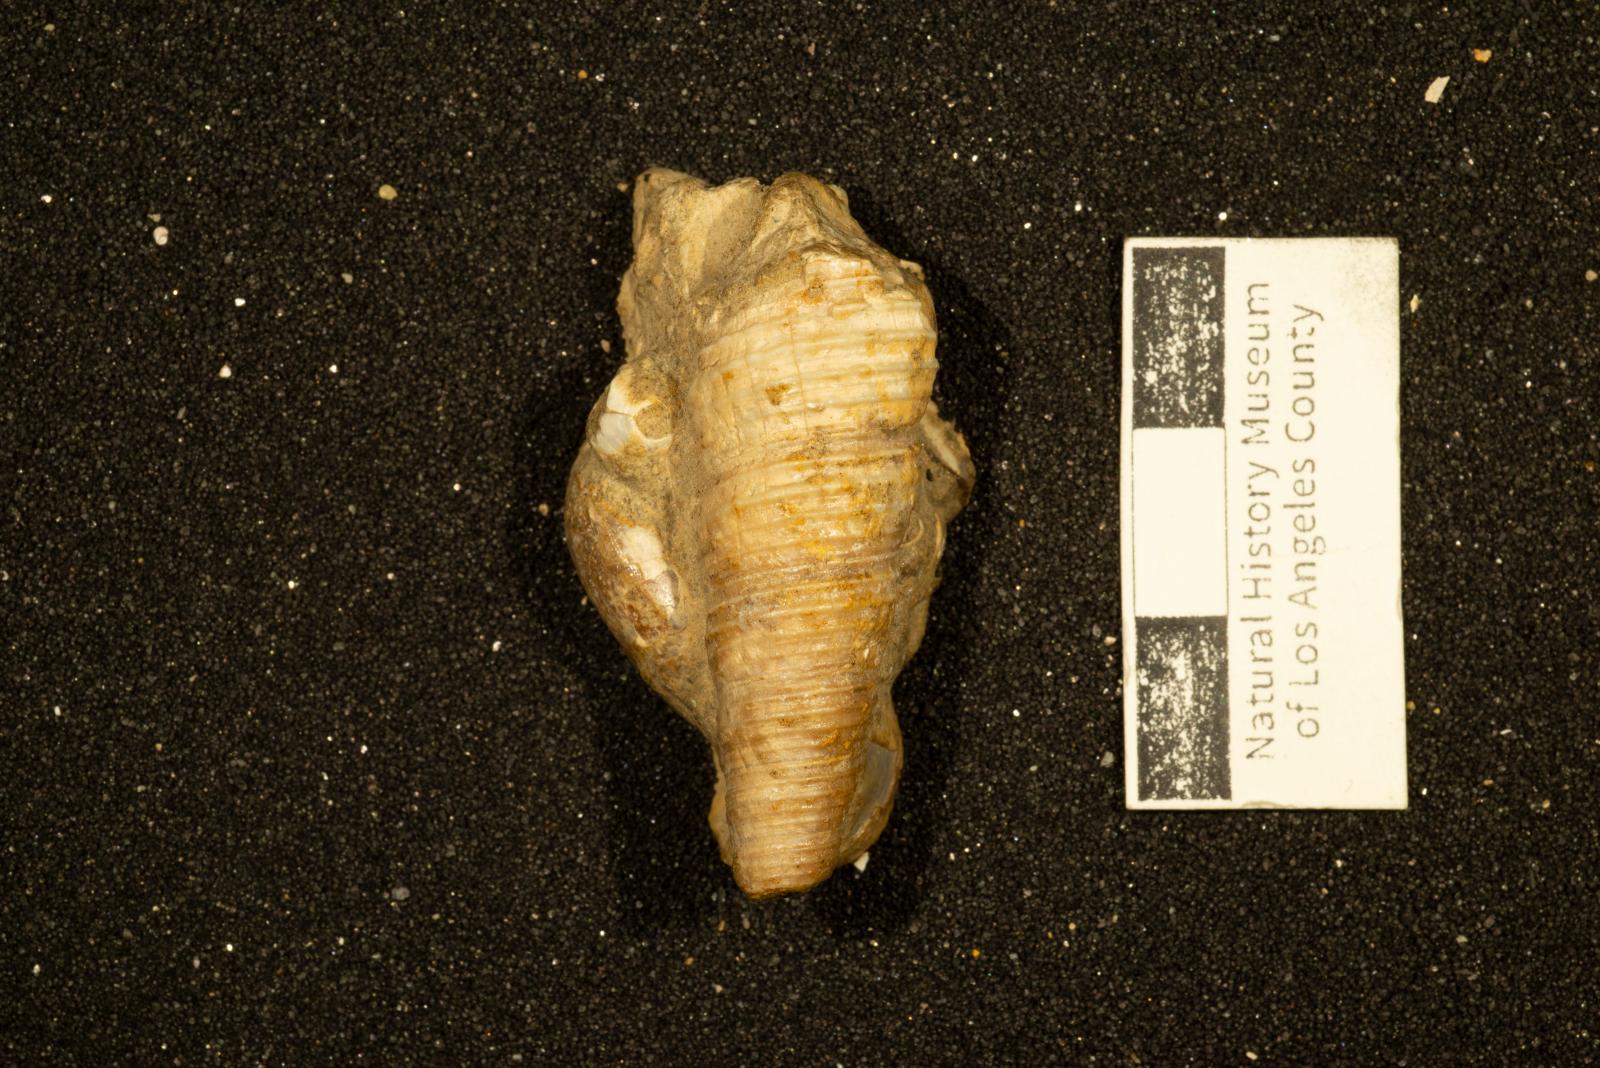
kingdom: Animalia
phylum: Mollusca
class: Gastropoda
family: Turritellidae
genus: Turritella
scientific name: Turritella chicoensis
